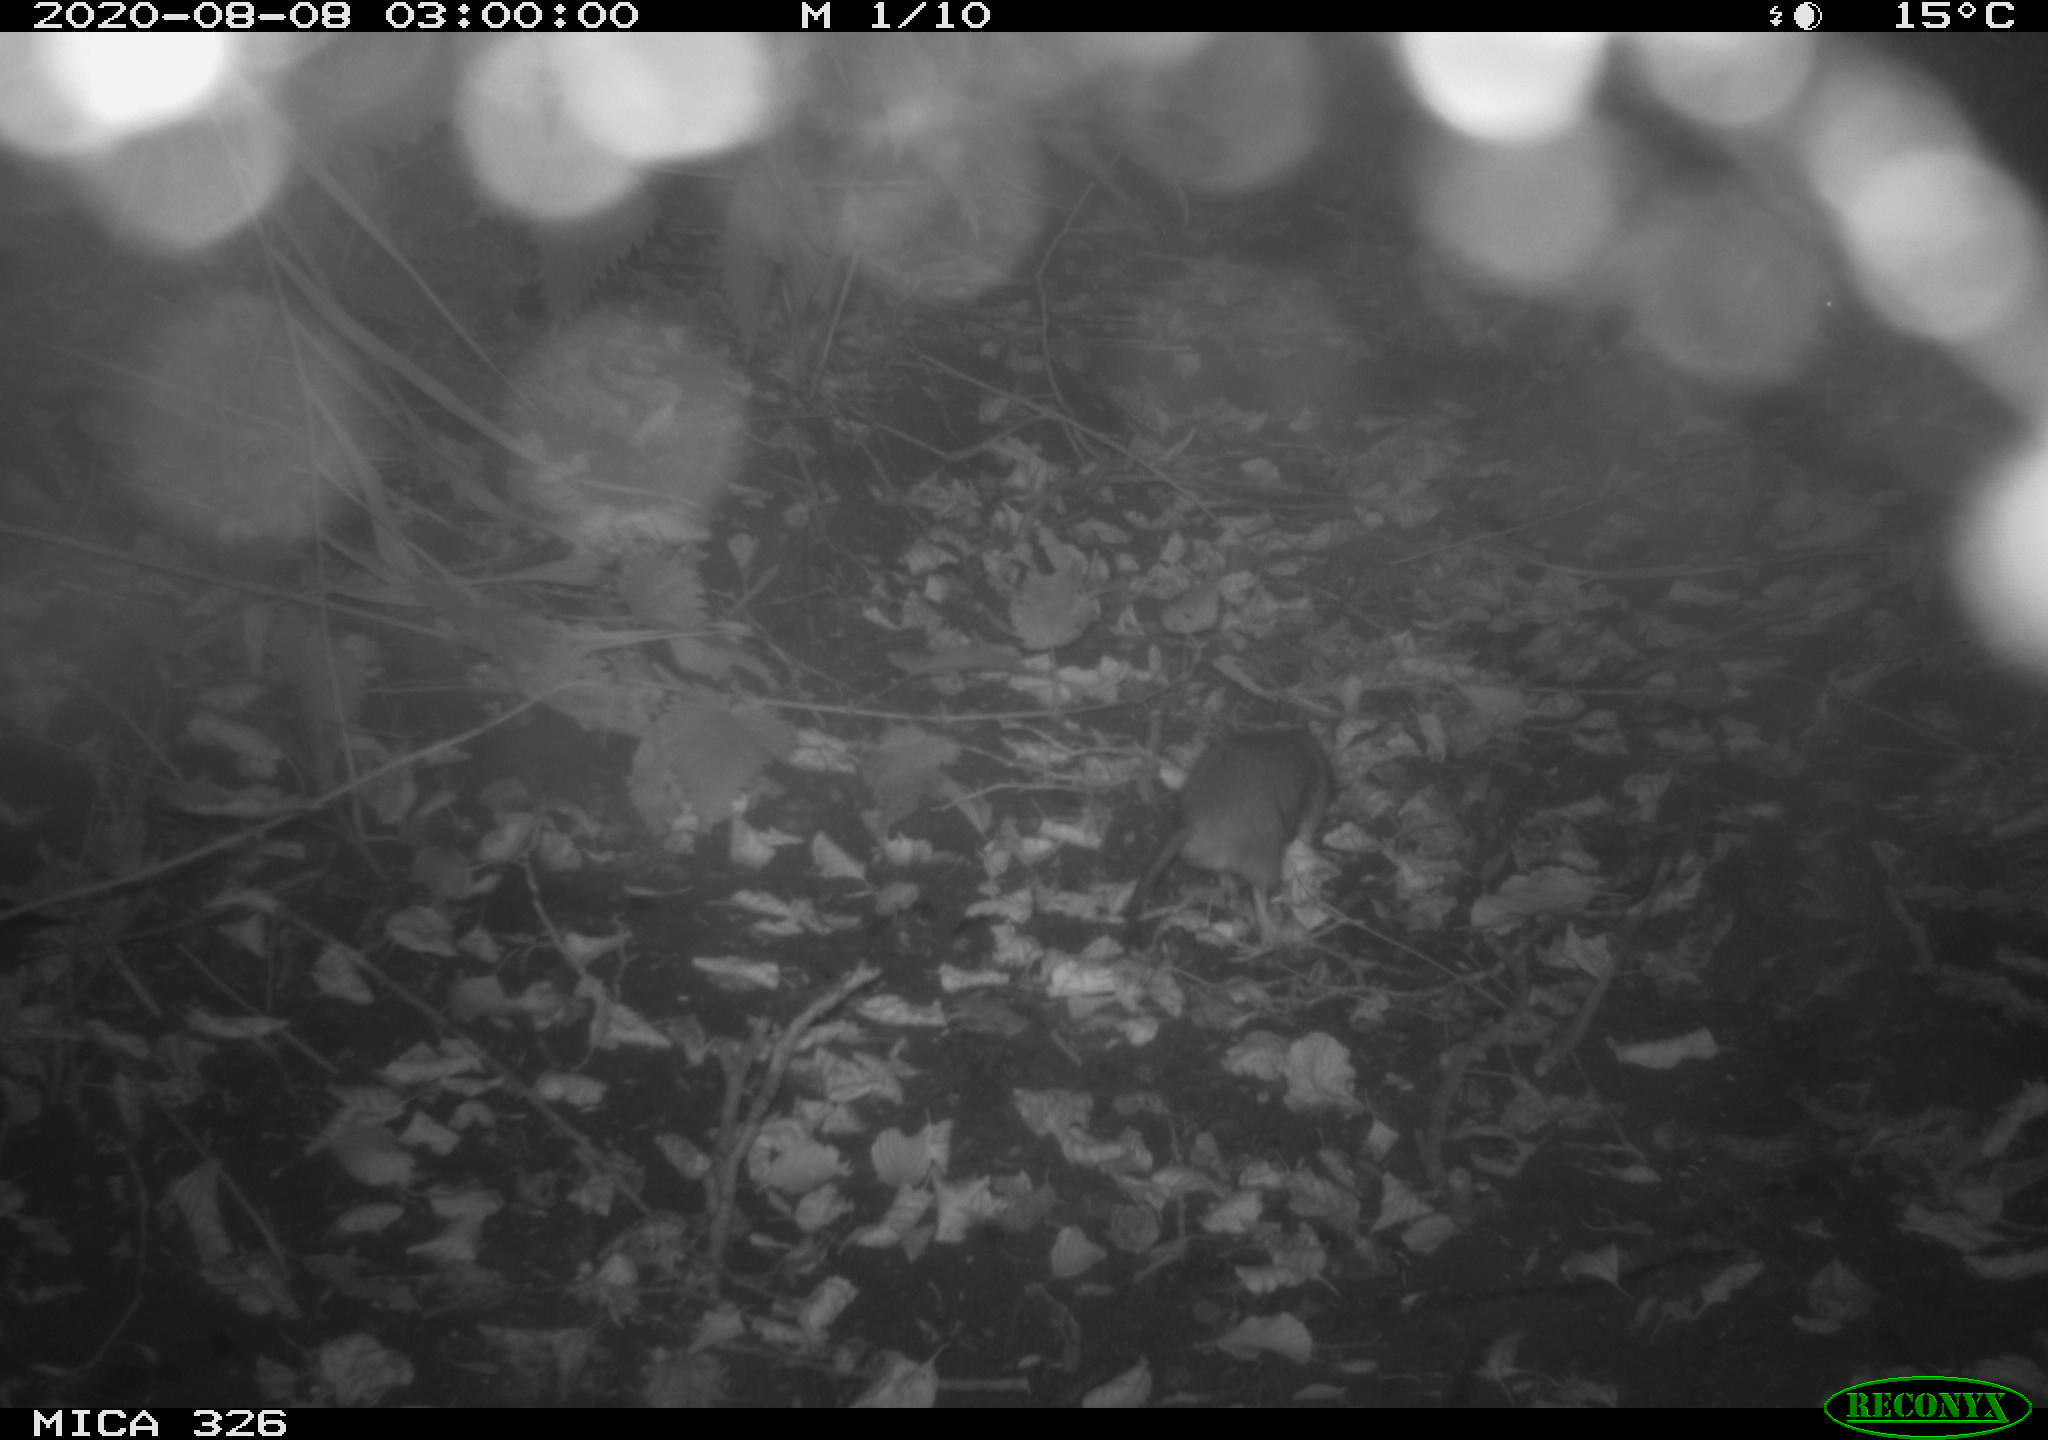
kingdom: Animalia
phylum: Chordata
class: Mammalia
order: Rodentia
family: Muridae
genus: Rattus
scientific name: Rattus norvegicus
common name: Brown rat
